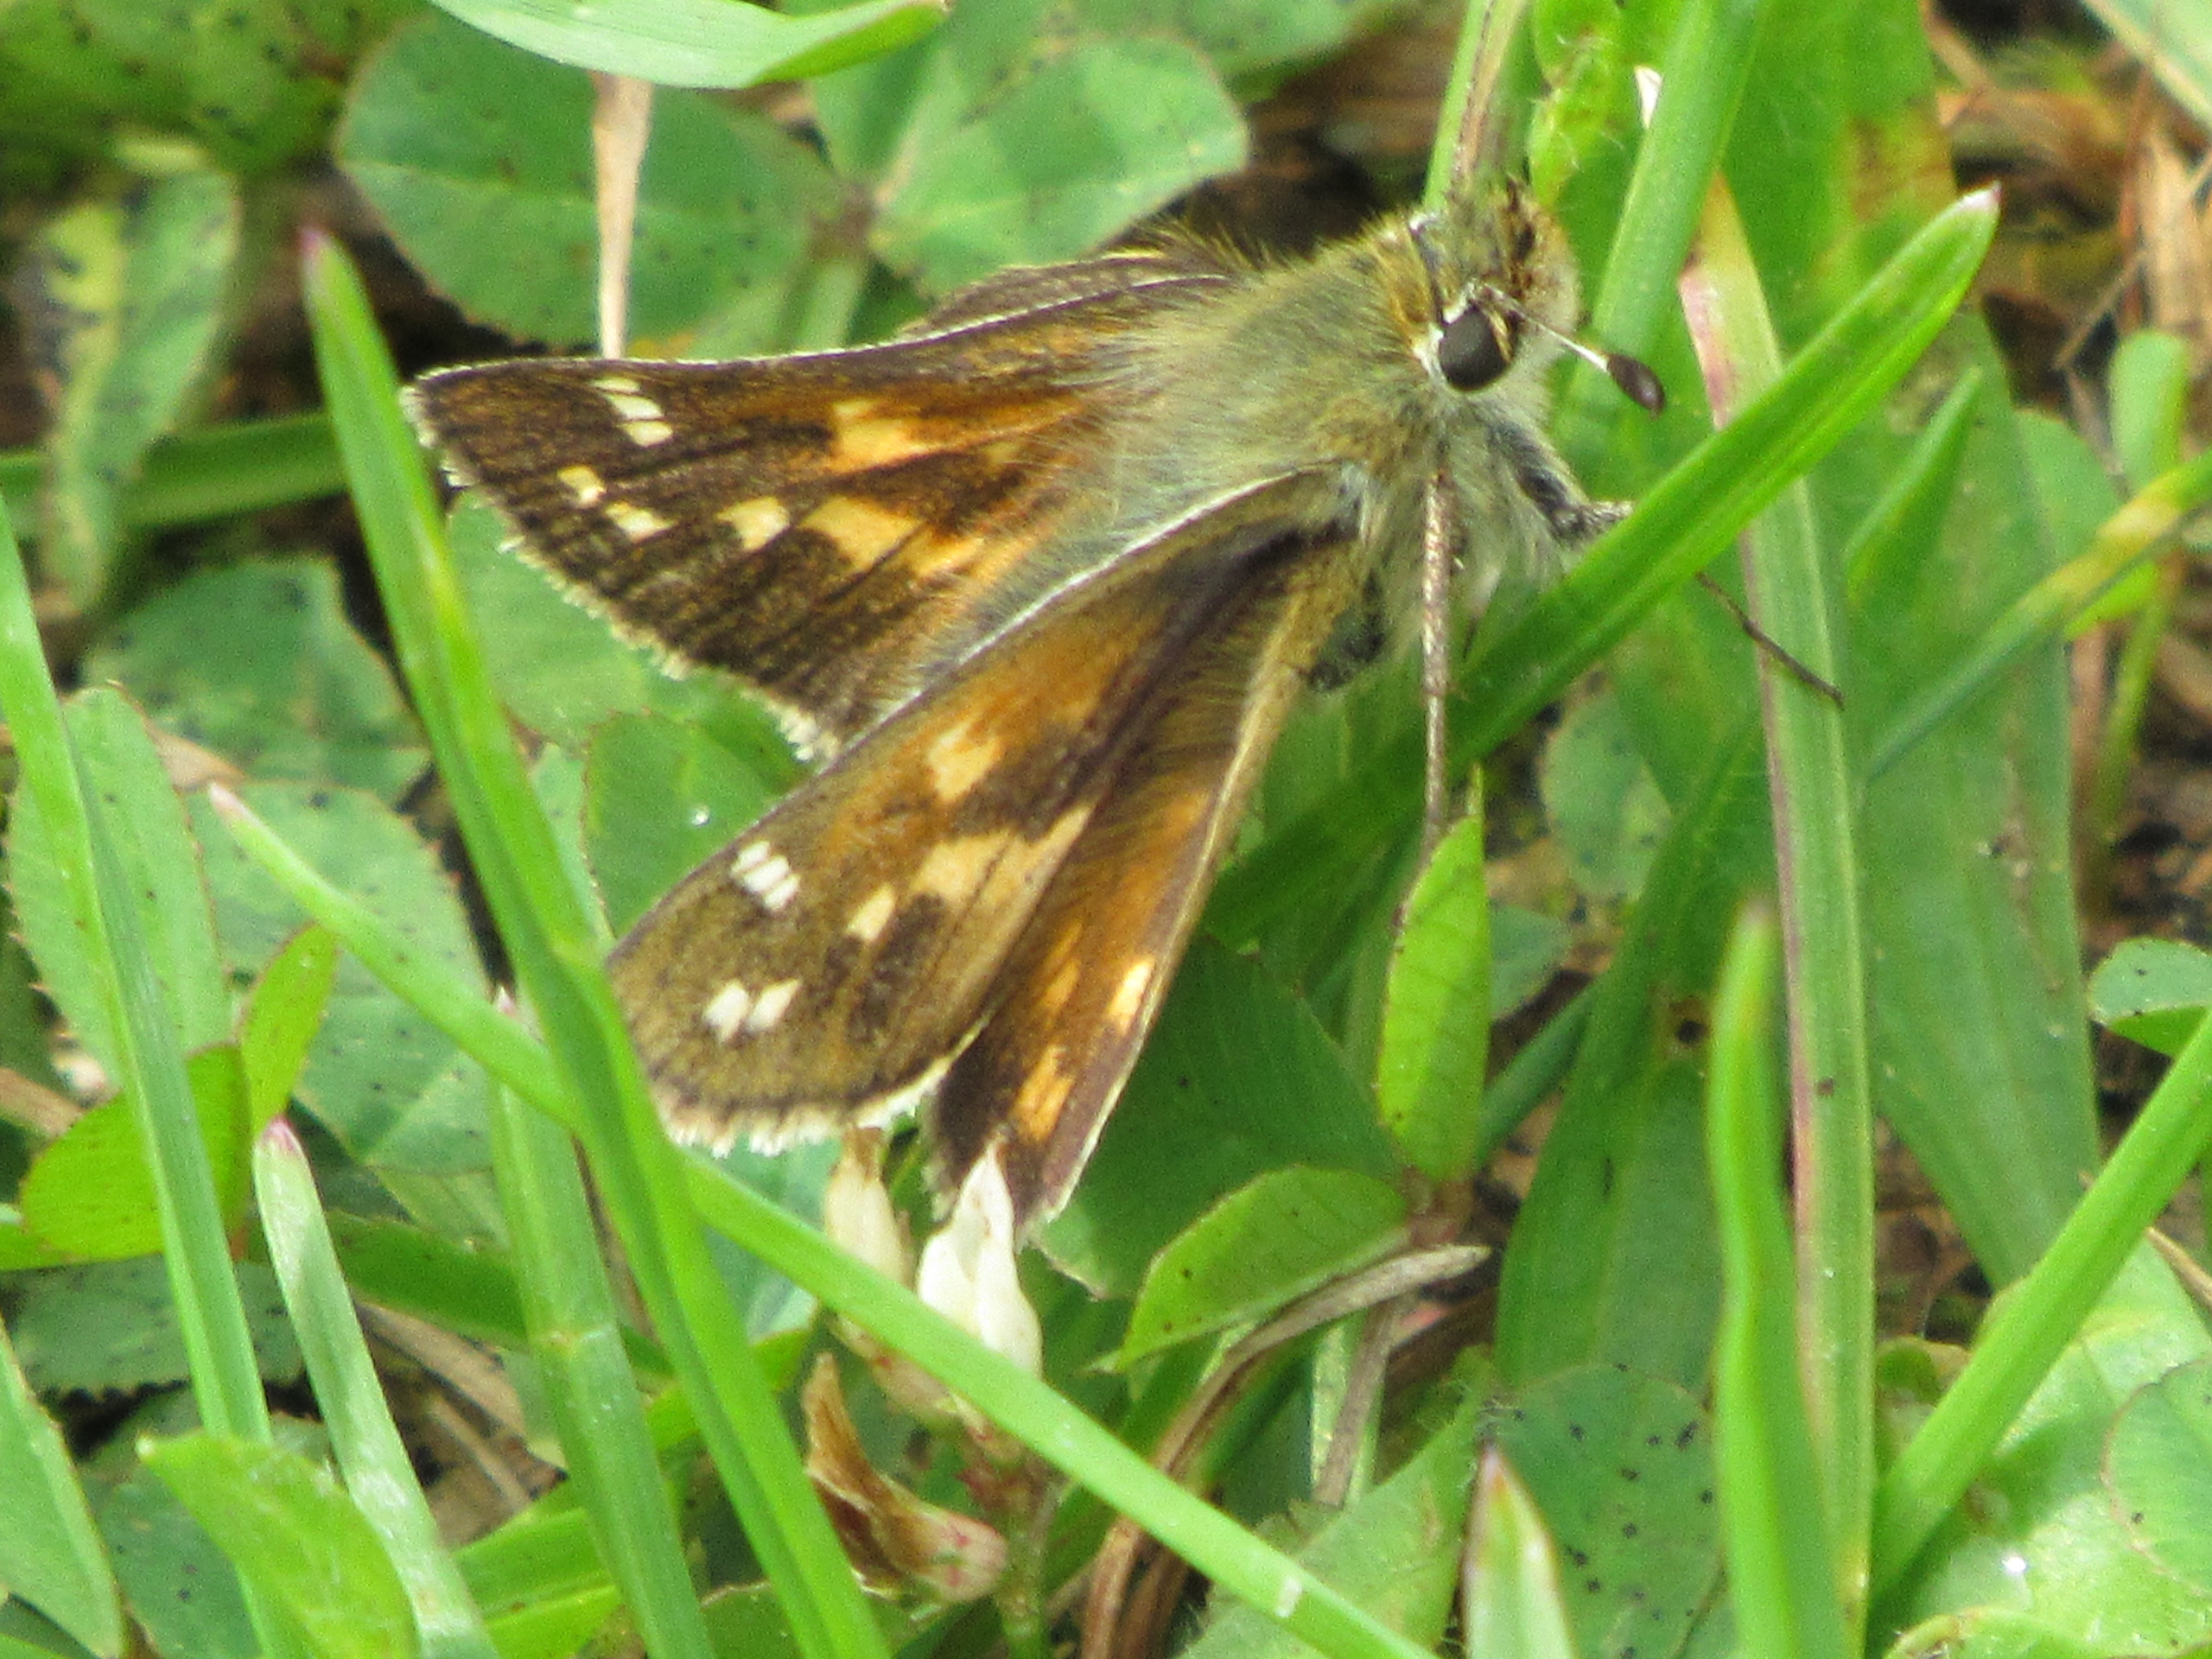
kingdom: Animalia
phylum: Arthropoda
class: Insecta
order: Lepidoptera
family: Hesperiidae
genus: Hesperia
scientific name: Hesperia comma
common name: Kommabredpande
